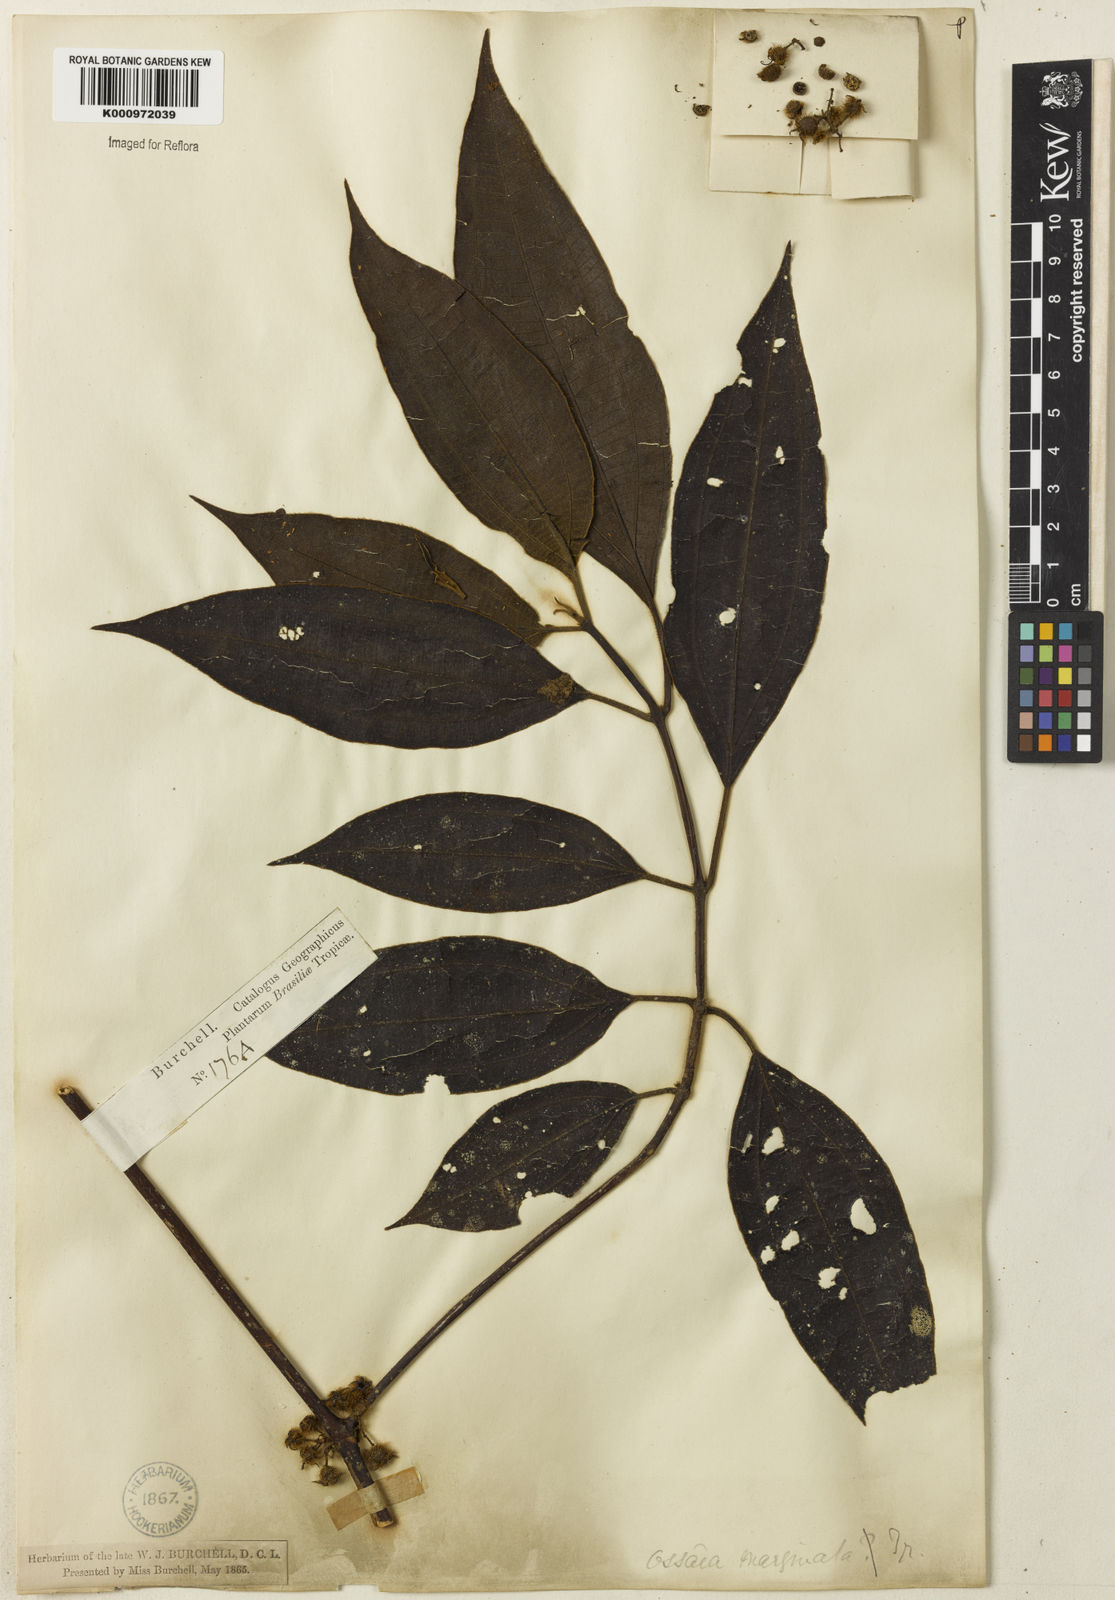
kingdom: Plantae
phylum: Tracheophyta
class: Magnoliopsida
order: Myrtales
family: Melastomataceae
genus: Miconia
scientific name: Miconia leamarginata
